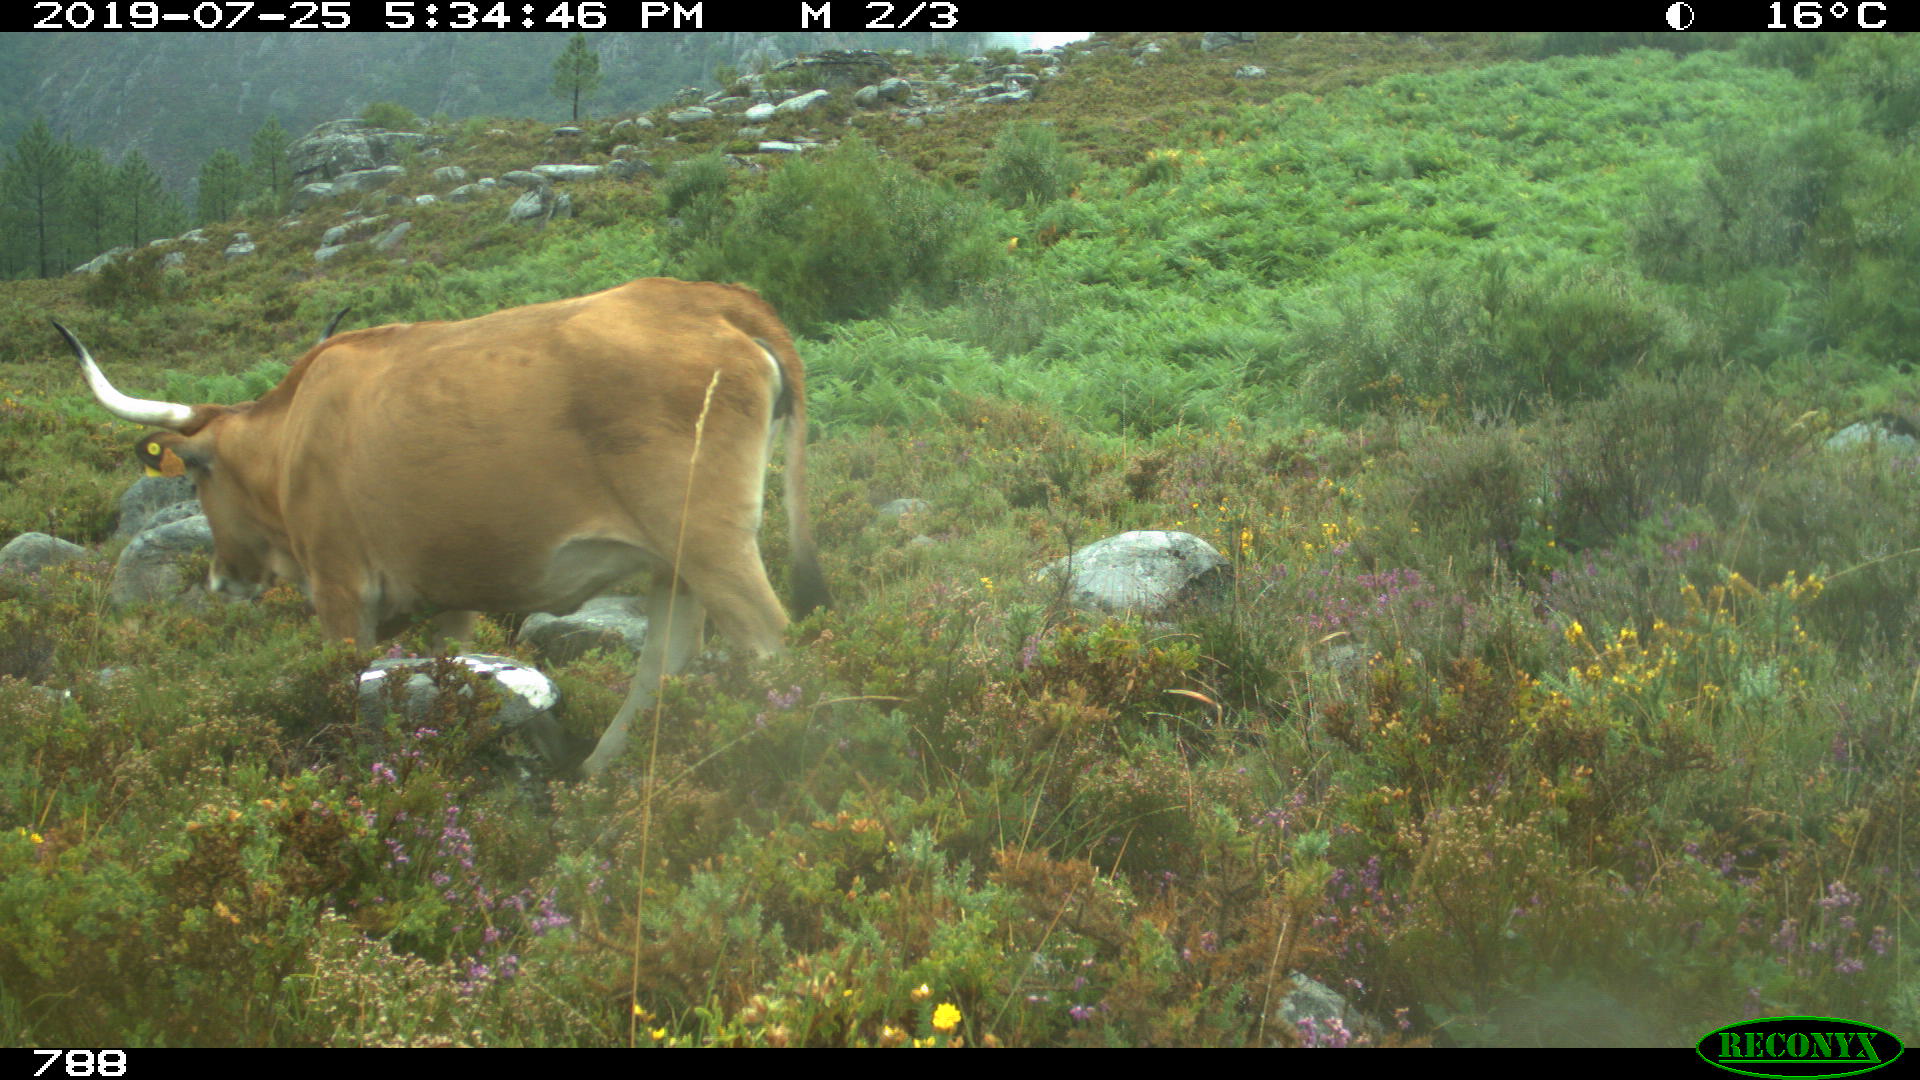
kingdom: Animalia
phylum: Chordata
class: Mammalia
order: Artiodactyla
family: Bovidae
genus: Bos
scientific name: Bos taurus
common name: Domesticated cattle
